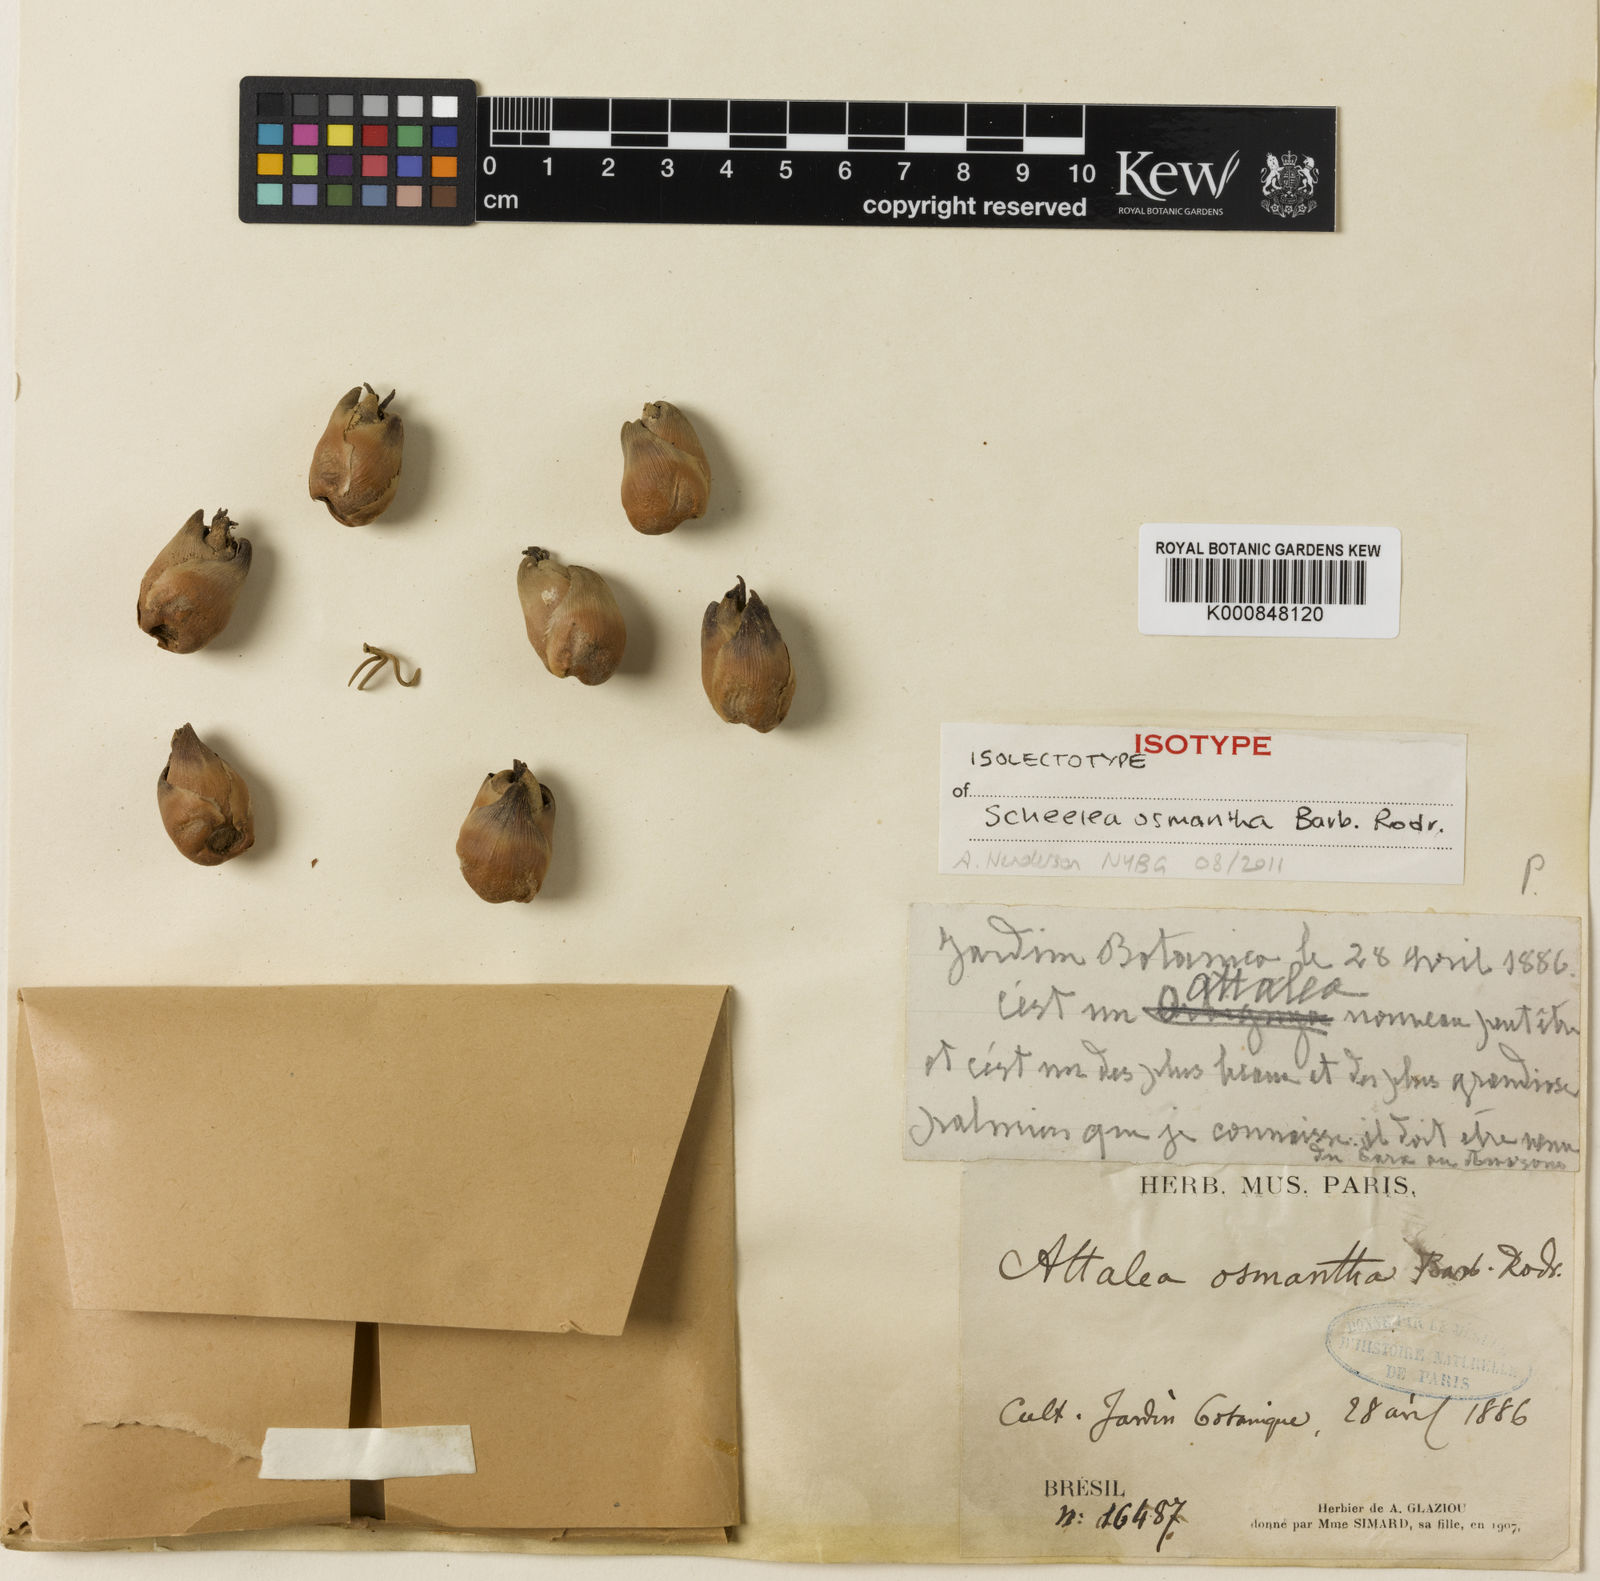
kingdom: Plantae
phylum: Tracheophyta
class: Liliopsida
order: Arecales
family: Arecaceae
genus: Attalea
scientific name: Attalea osmantha
